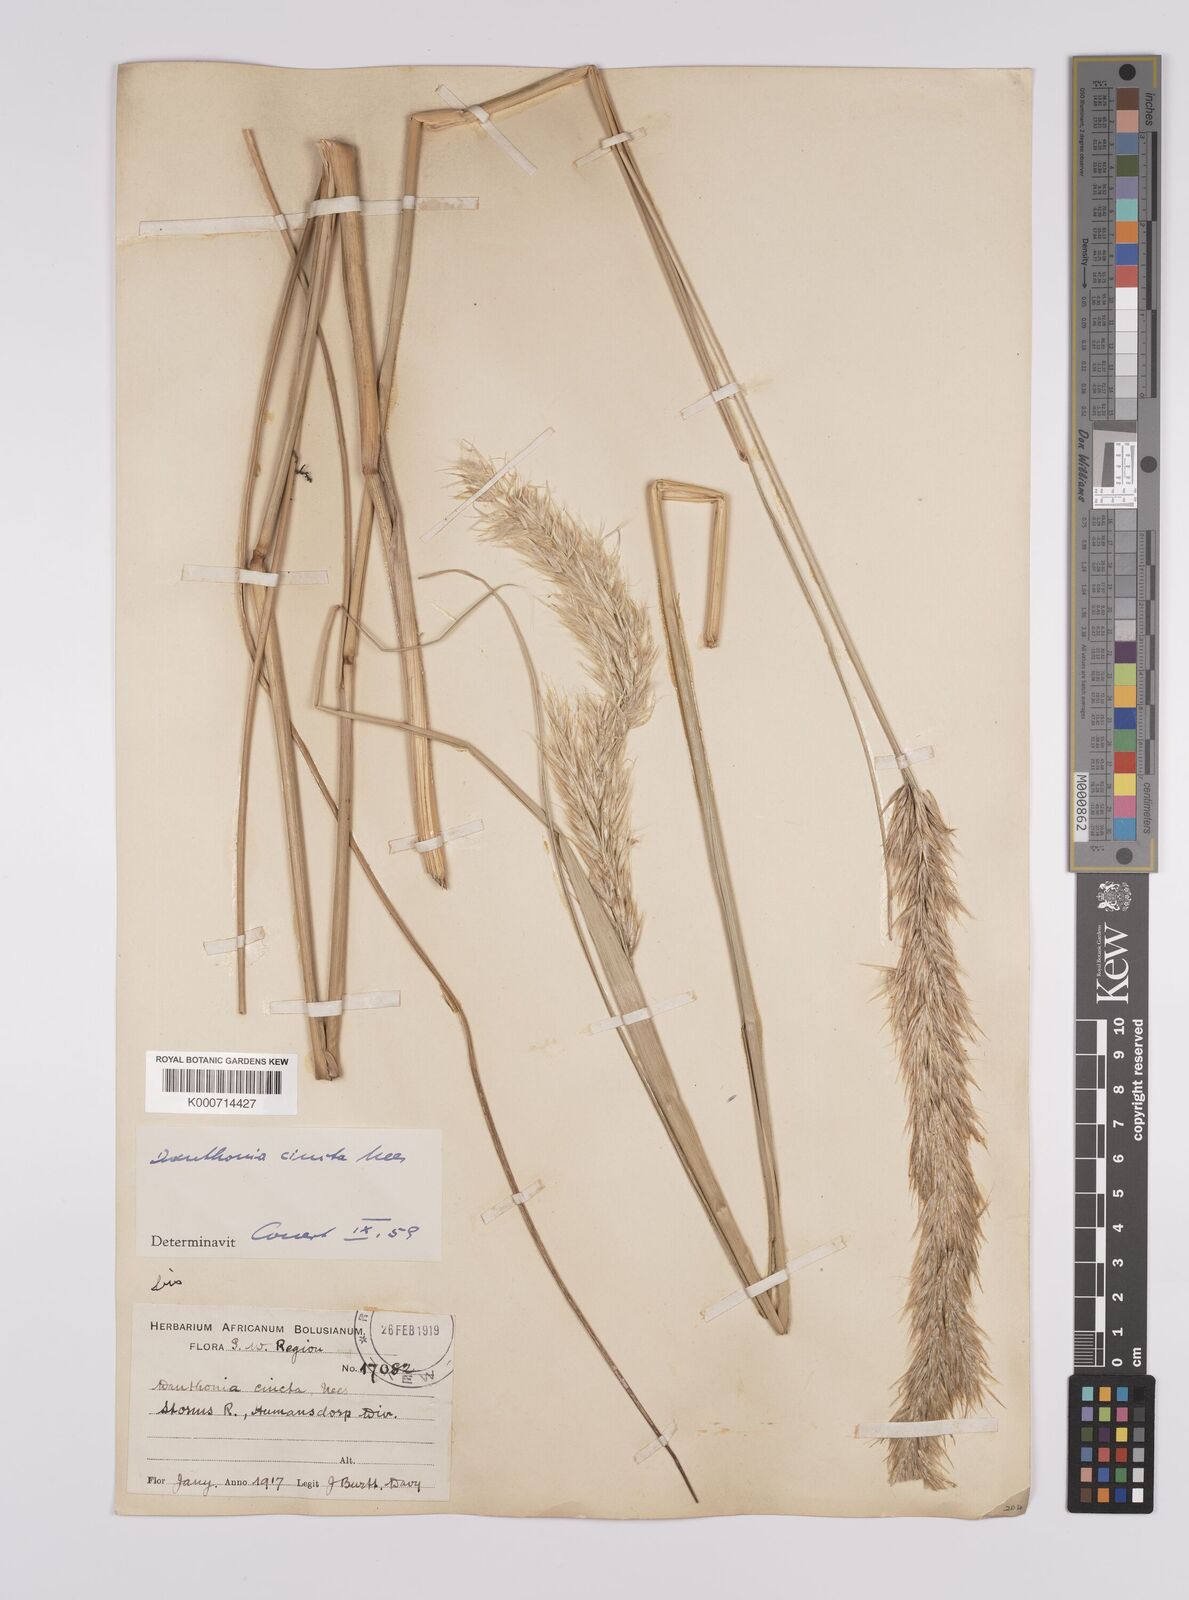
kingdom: Plantae
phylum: Tracheophyta
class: Liliopsida
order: Poales
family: Poaceae
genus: Rytidosperma
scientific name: Rytidosperma
